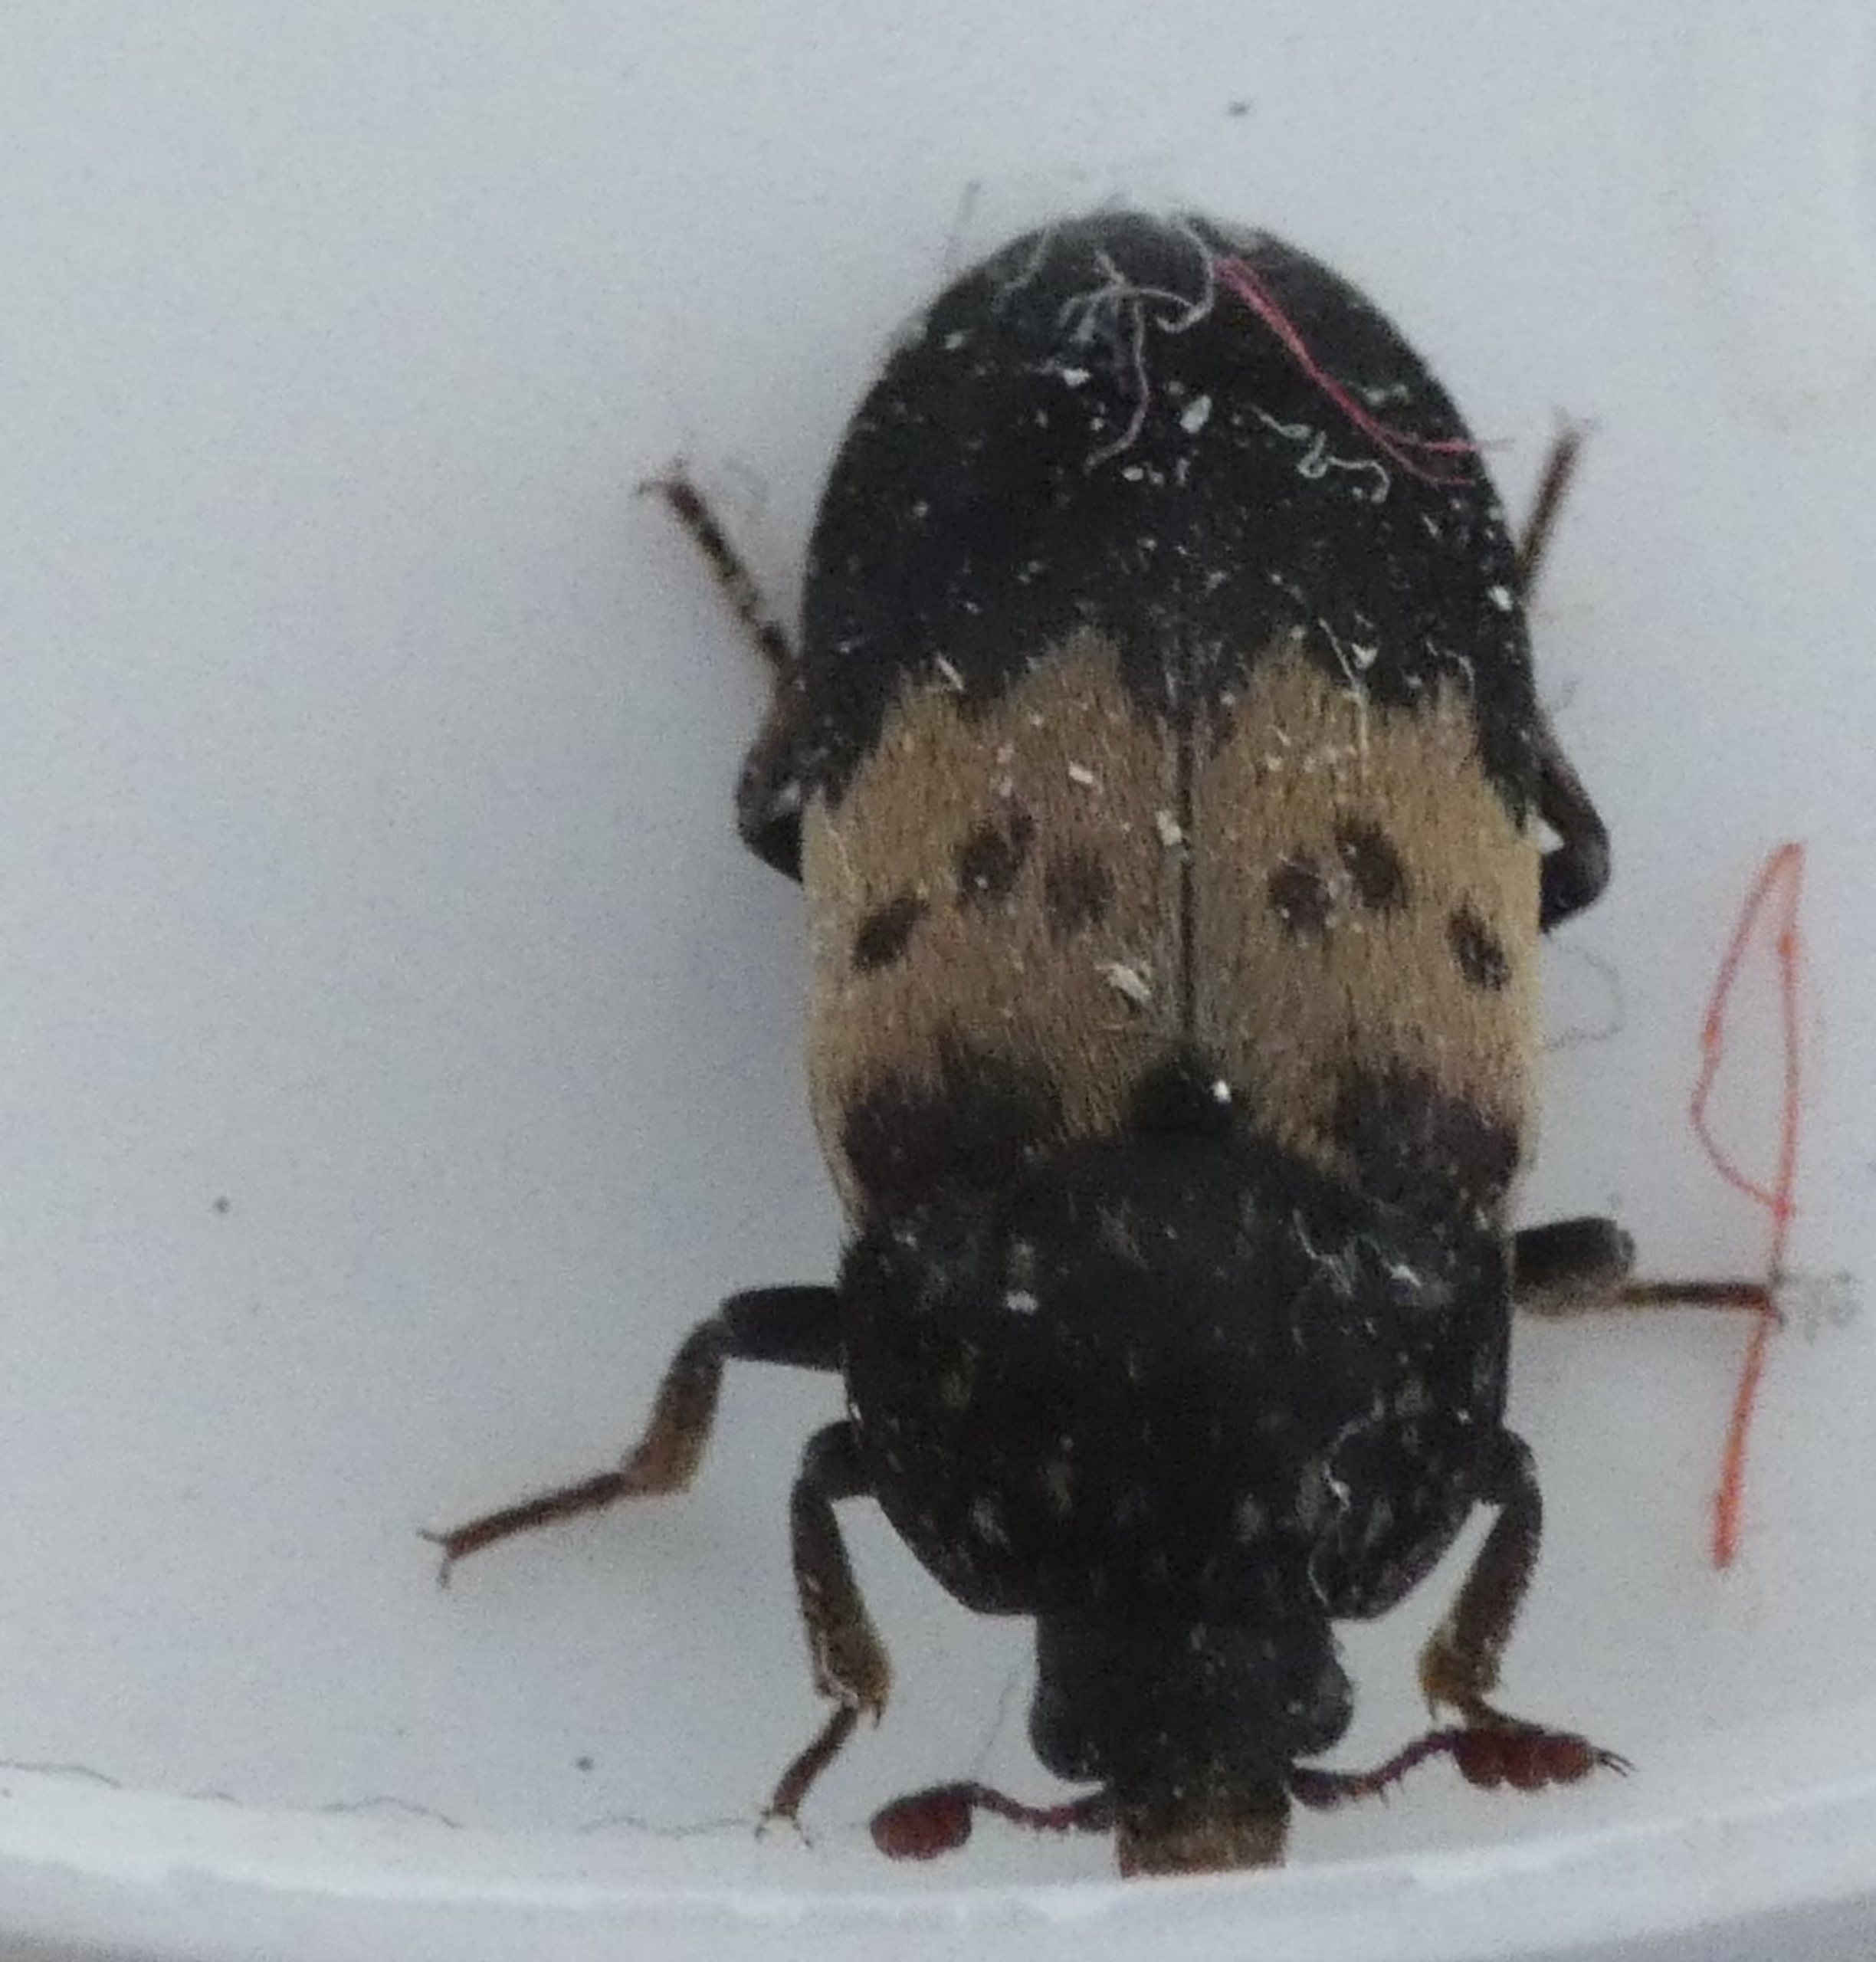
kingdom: Animalia
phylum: Arthropoda
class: Insecta
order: Coleoptera
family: Dermestidae
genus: Dermestes
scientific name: Dermestes lardarius
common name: Flæskeklanner
